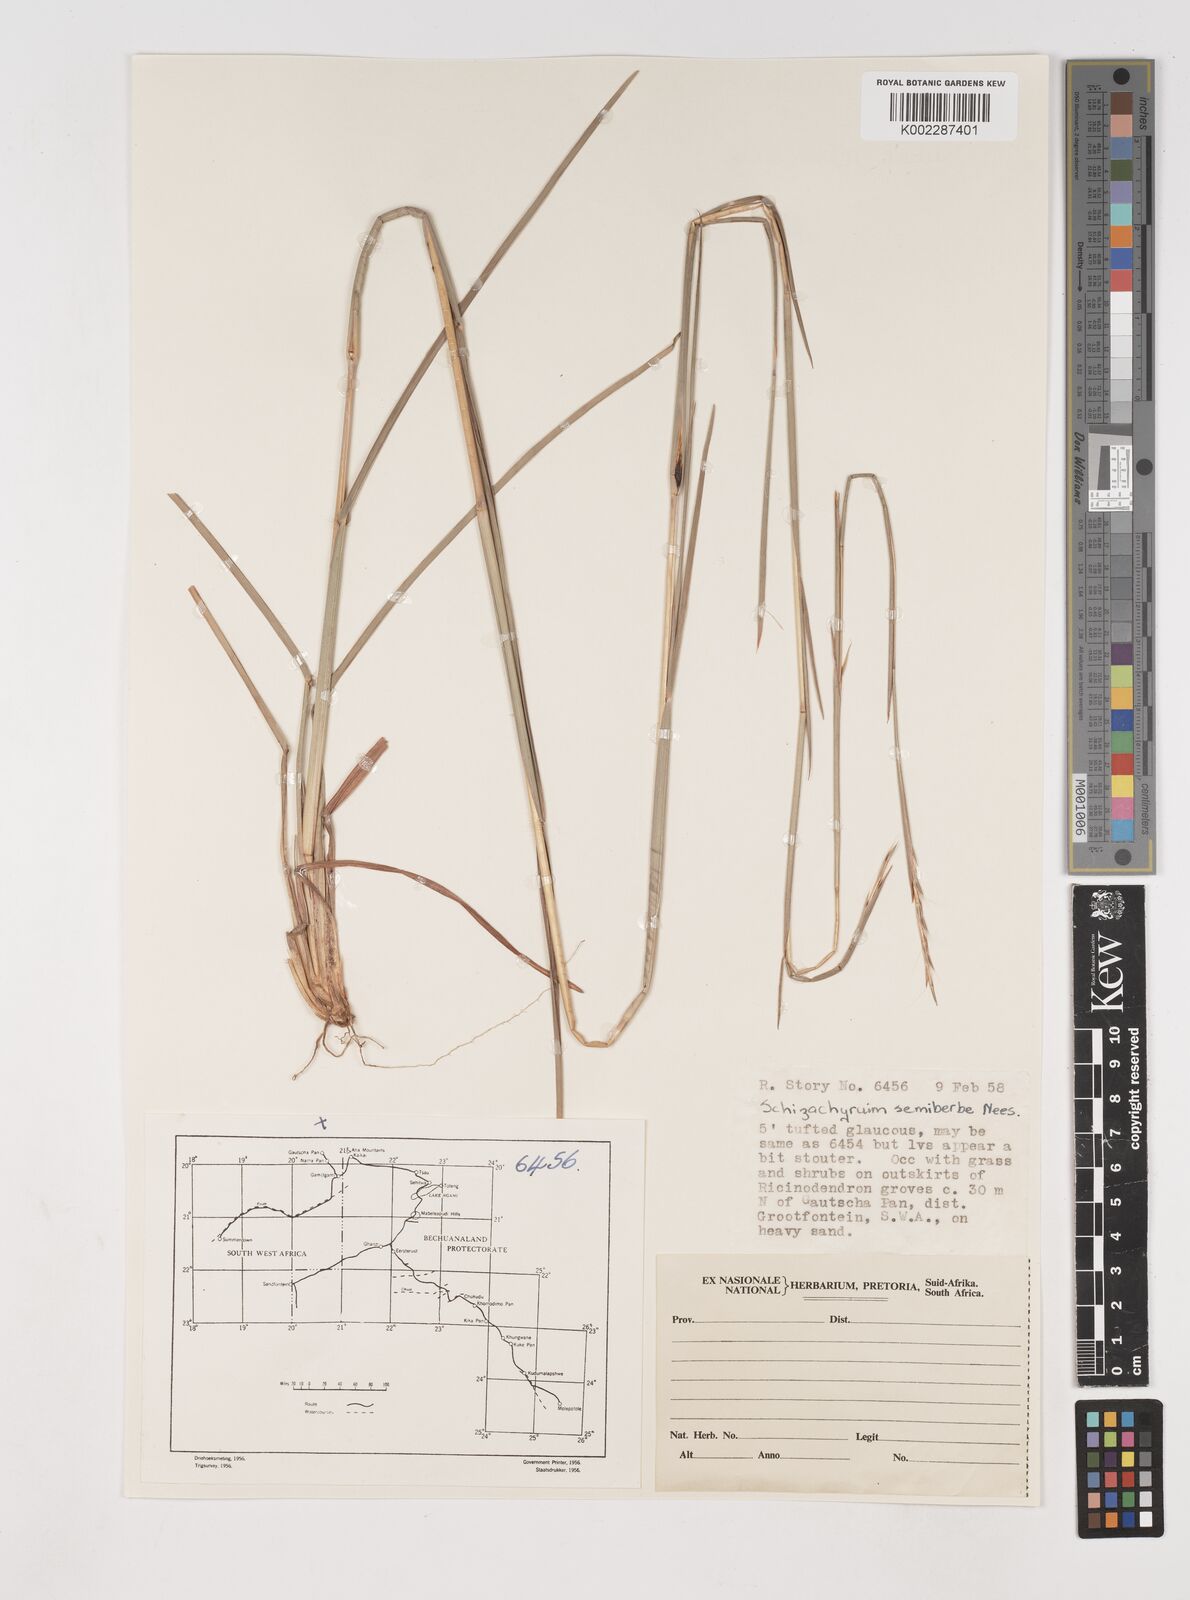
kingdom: Plantae
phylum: Tracheophyta
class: Liliopsida
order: Poales
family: Poaceae
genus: Schizachyrium
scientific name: Schizachyrium sanguineum
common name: Crimson bluestem
